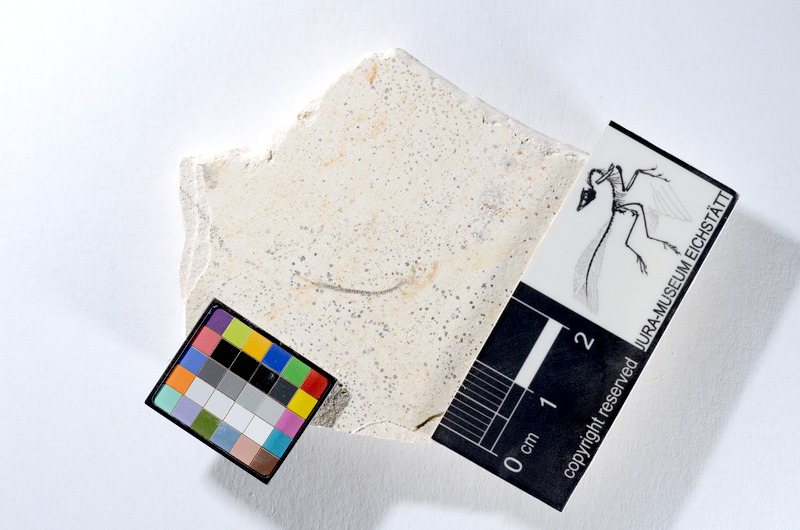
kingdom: Animalia
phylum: Chordata
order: Salmoniformes
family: Orthogonikleithridae
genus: Orthogonikleithrus
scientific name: Orthogonikleithrus hoelli
